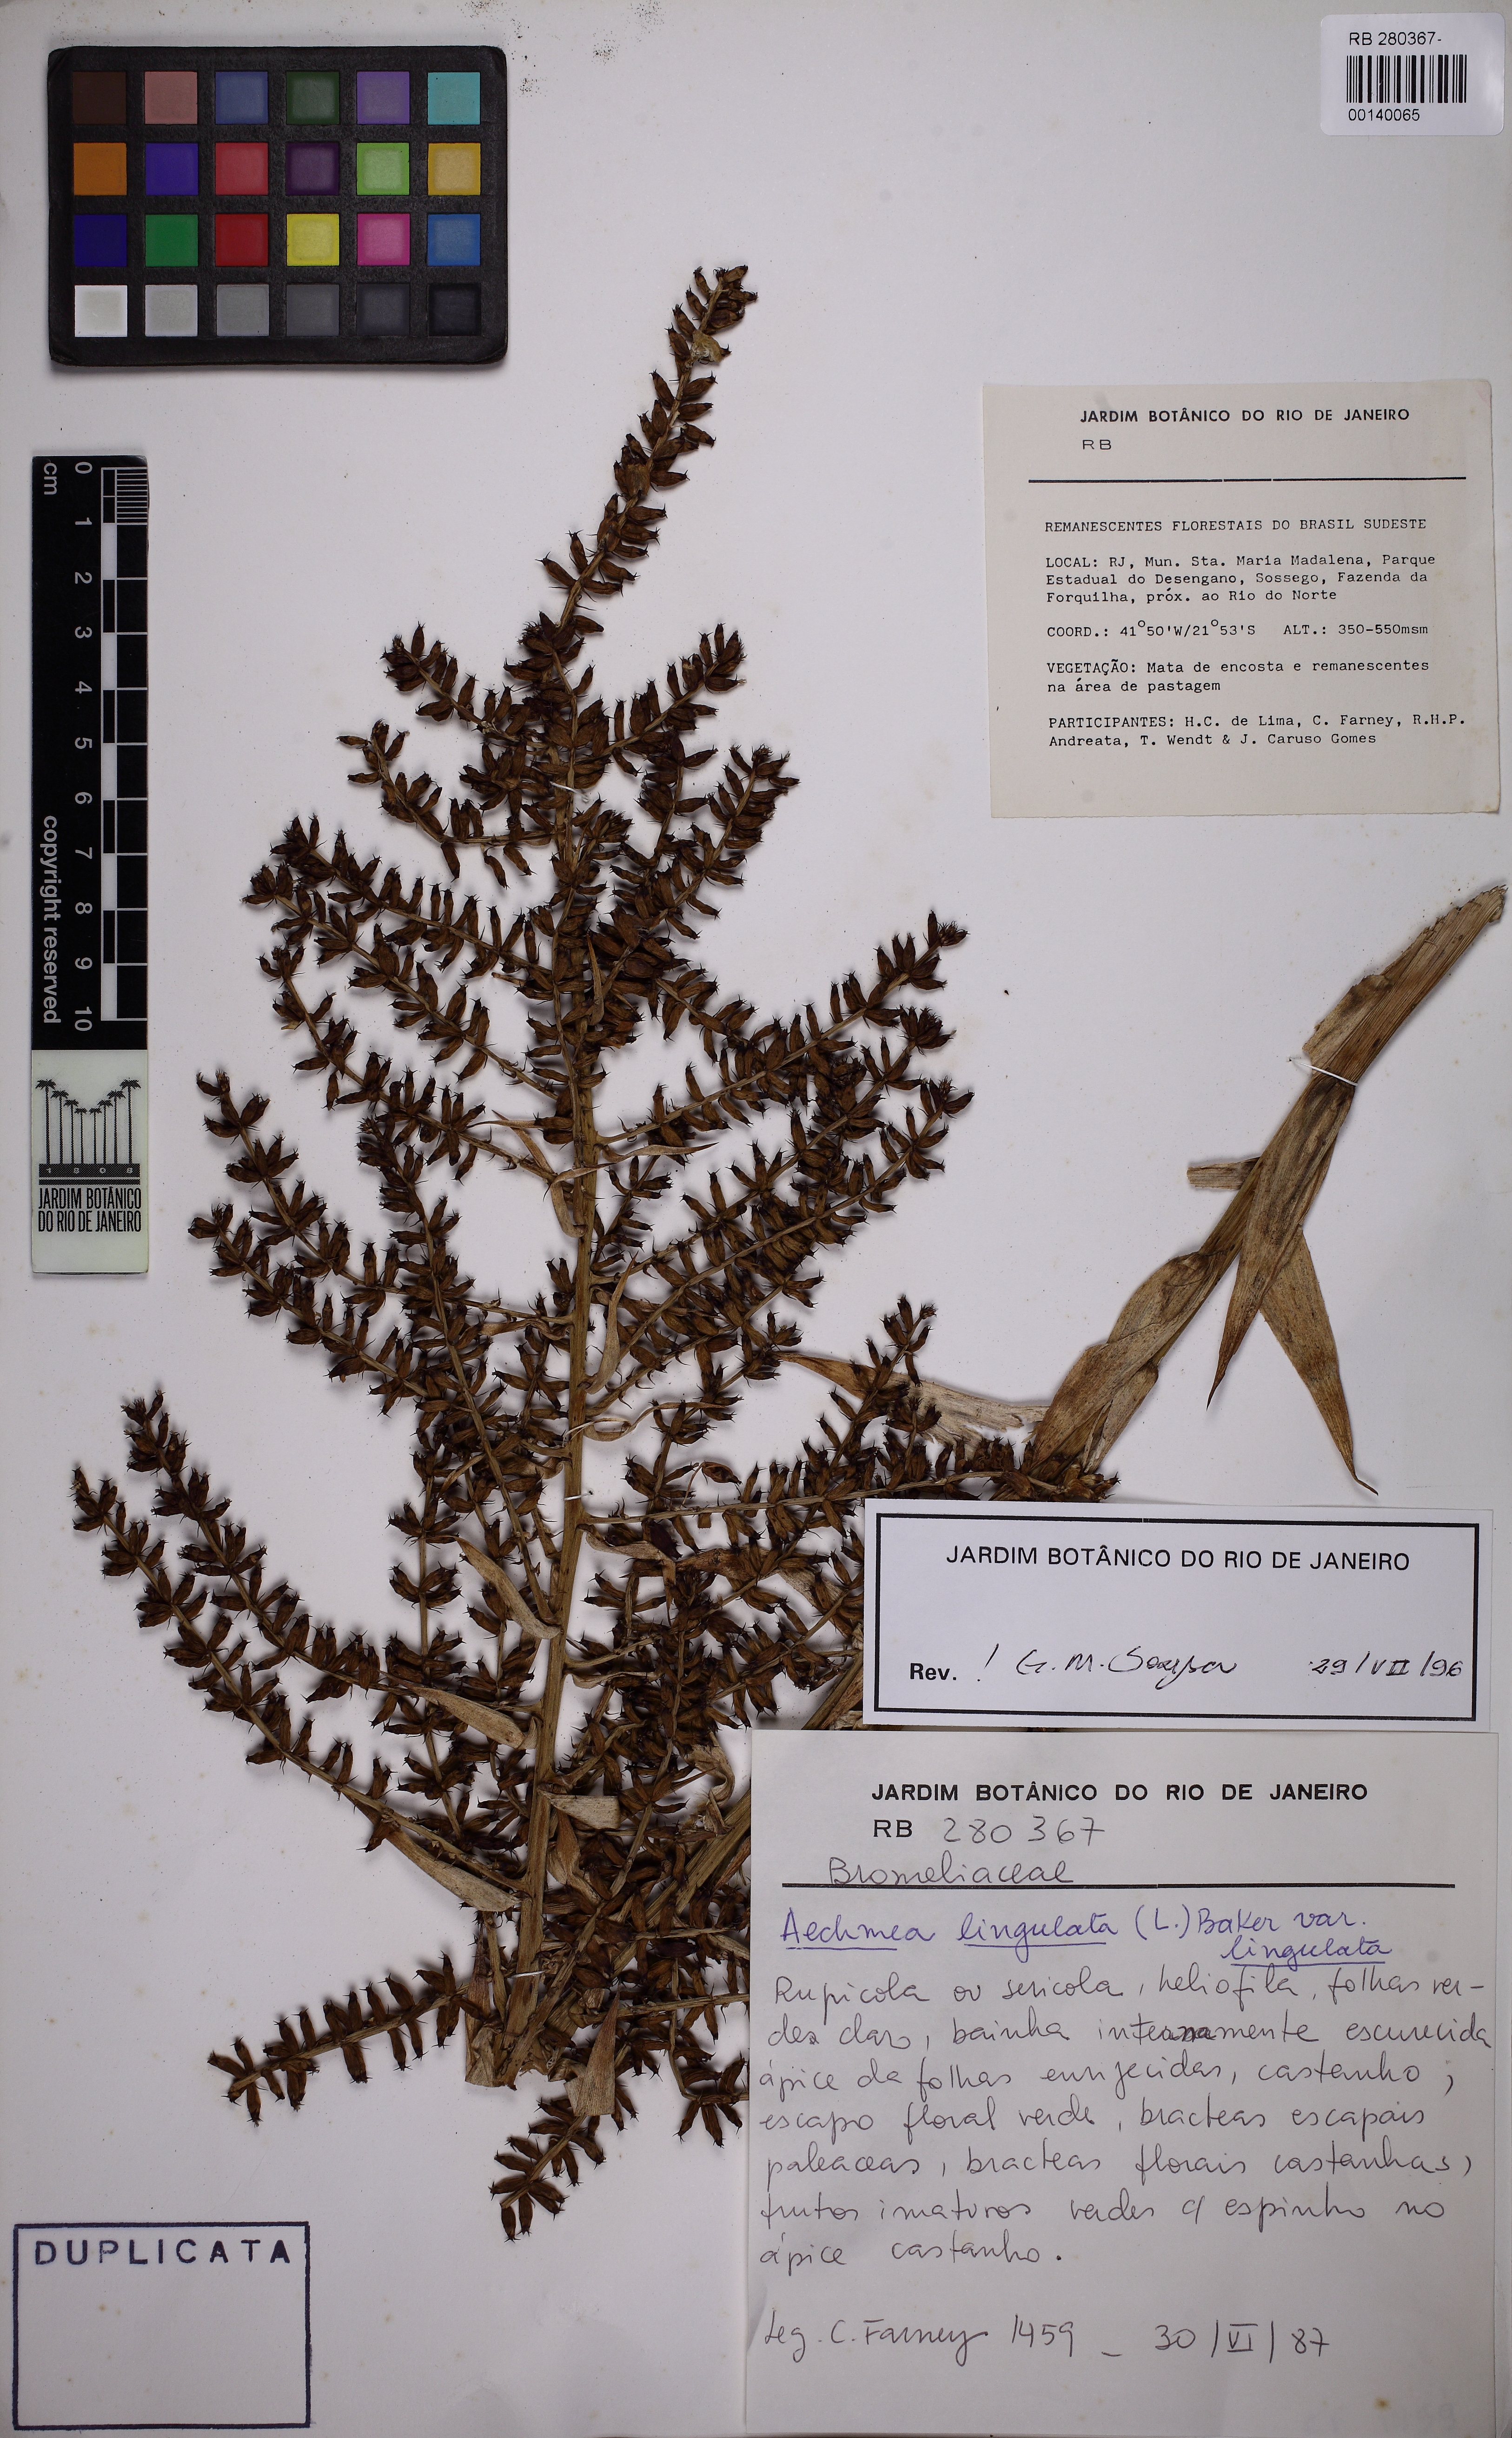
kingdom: Plantae
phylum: Tracheophyta
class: Liliopsida
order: Poales
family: Bromeliaceae
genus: Wittmackia
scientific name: Wittmackia lingulata
